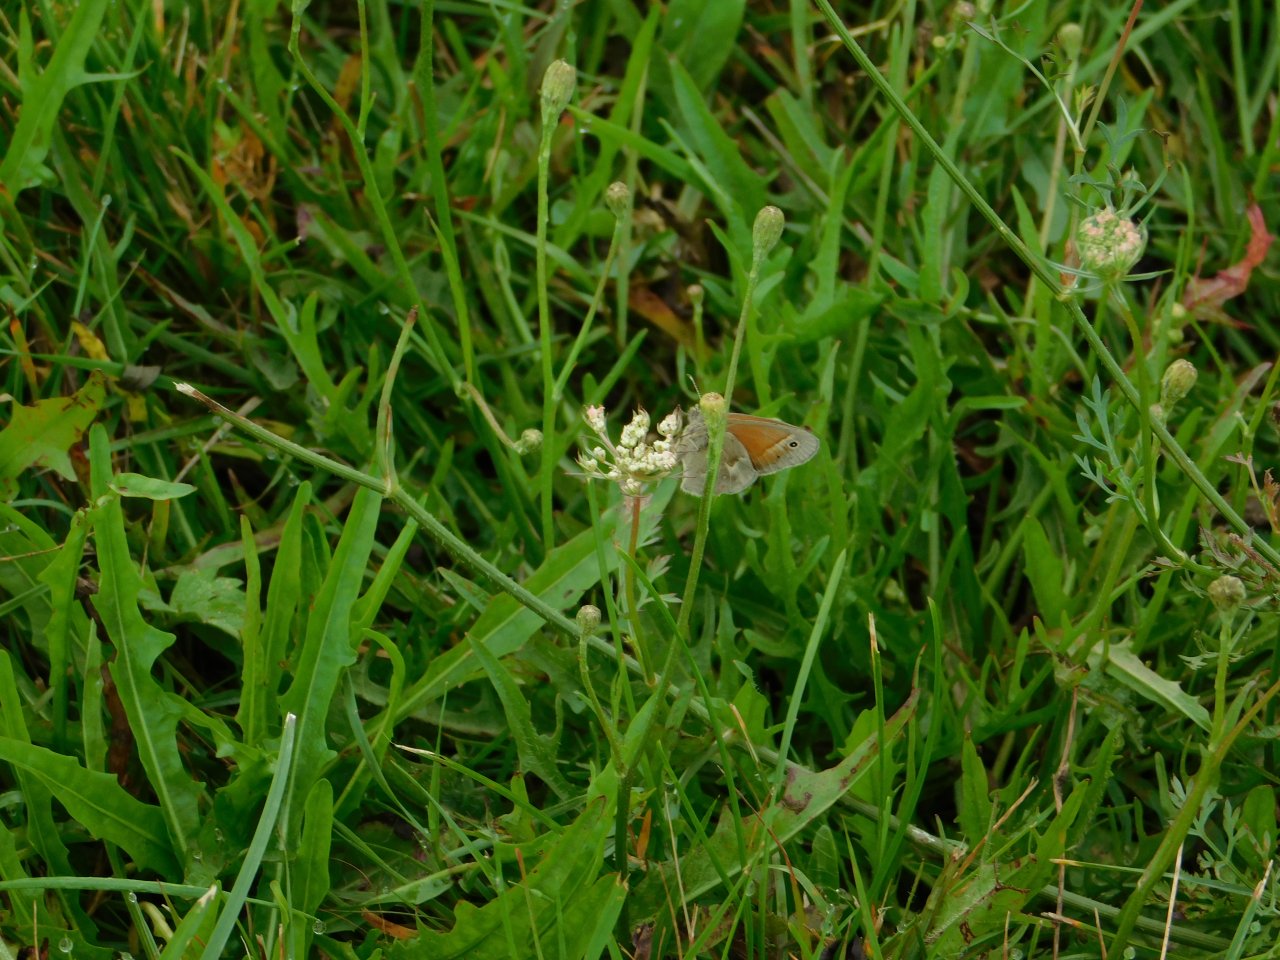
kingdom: Animalia
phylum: Arthropoda
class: Insecta
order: Lepidoptera
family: Nymphalidae
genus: Coenonympha
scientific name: Coenonympha tullia
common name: Large Heath
